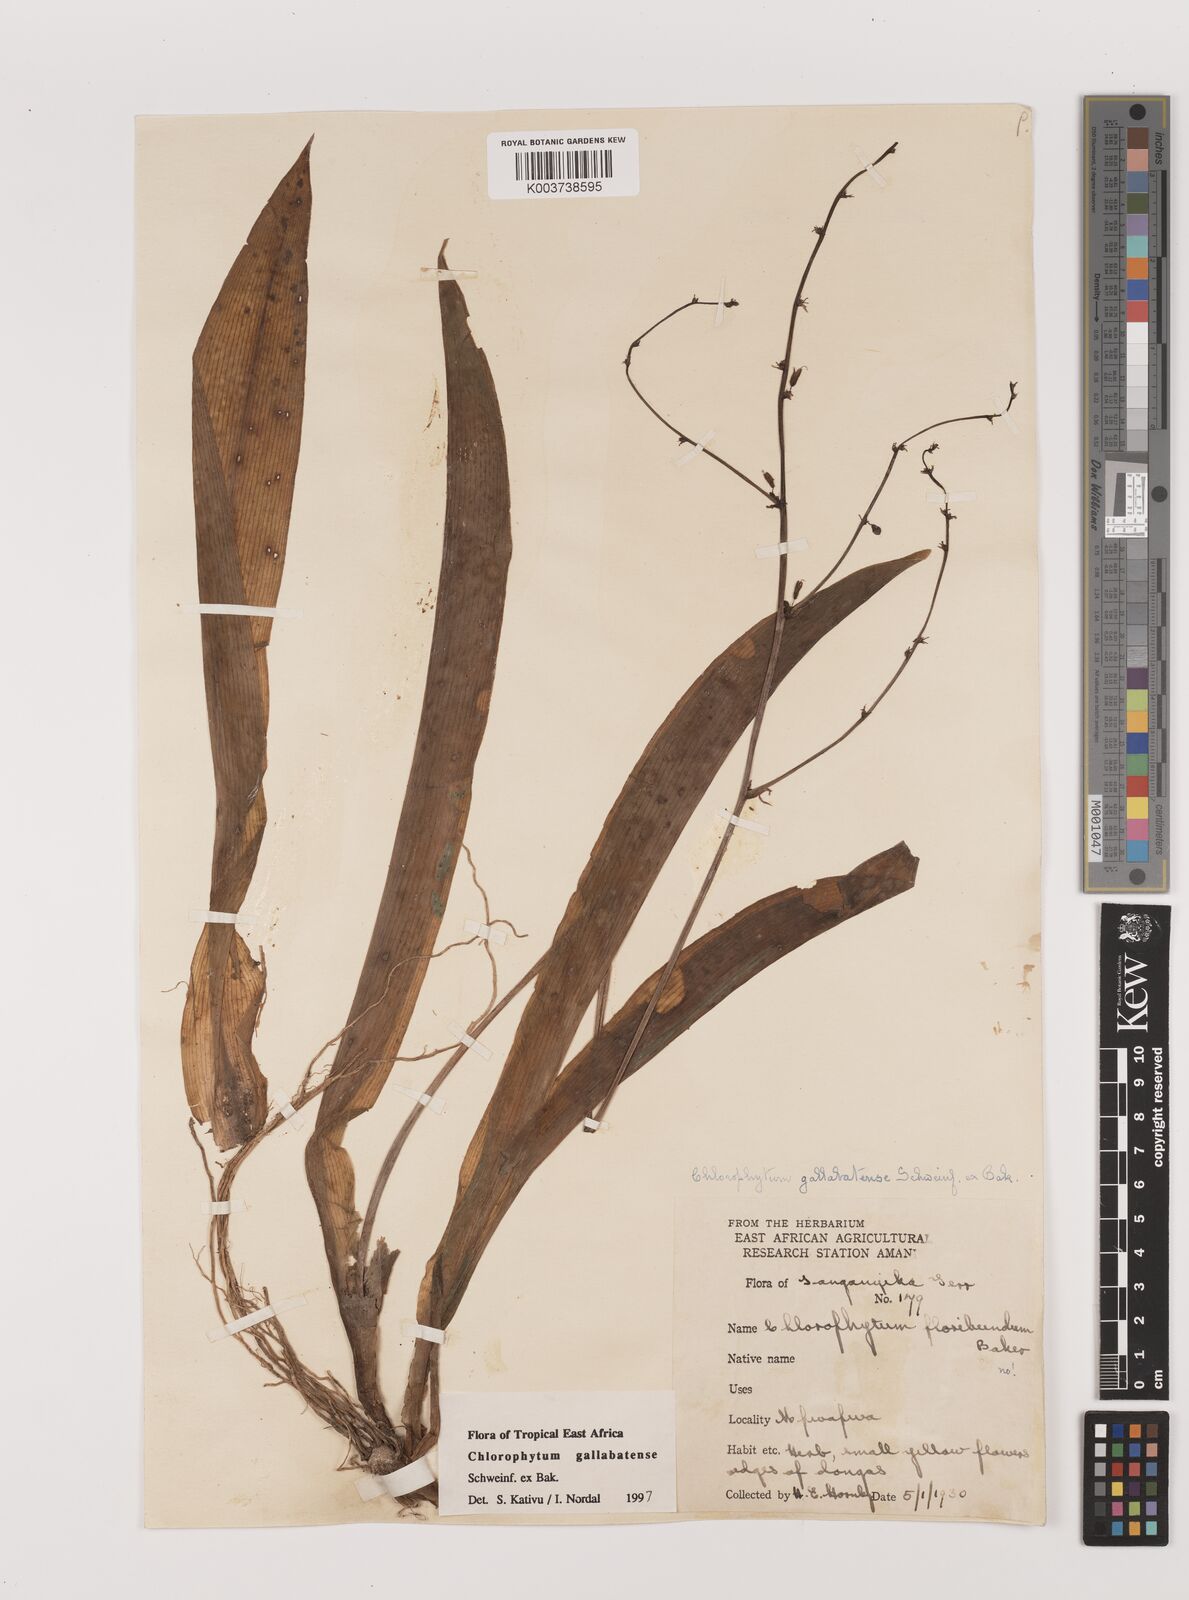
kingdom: Plantae
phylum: Tracheophyta
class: Liliopsida
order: Asparagales
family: Asparagaceae
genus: Chlorophytum
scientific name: Chlorophytum gallabatense
